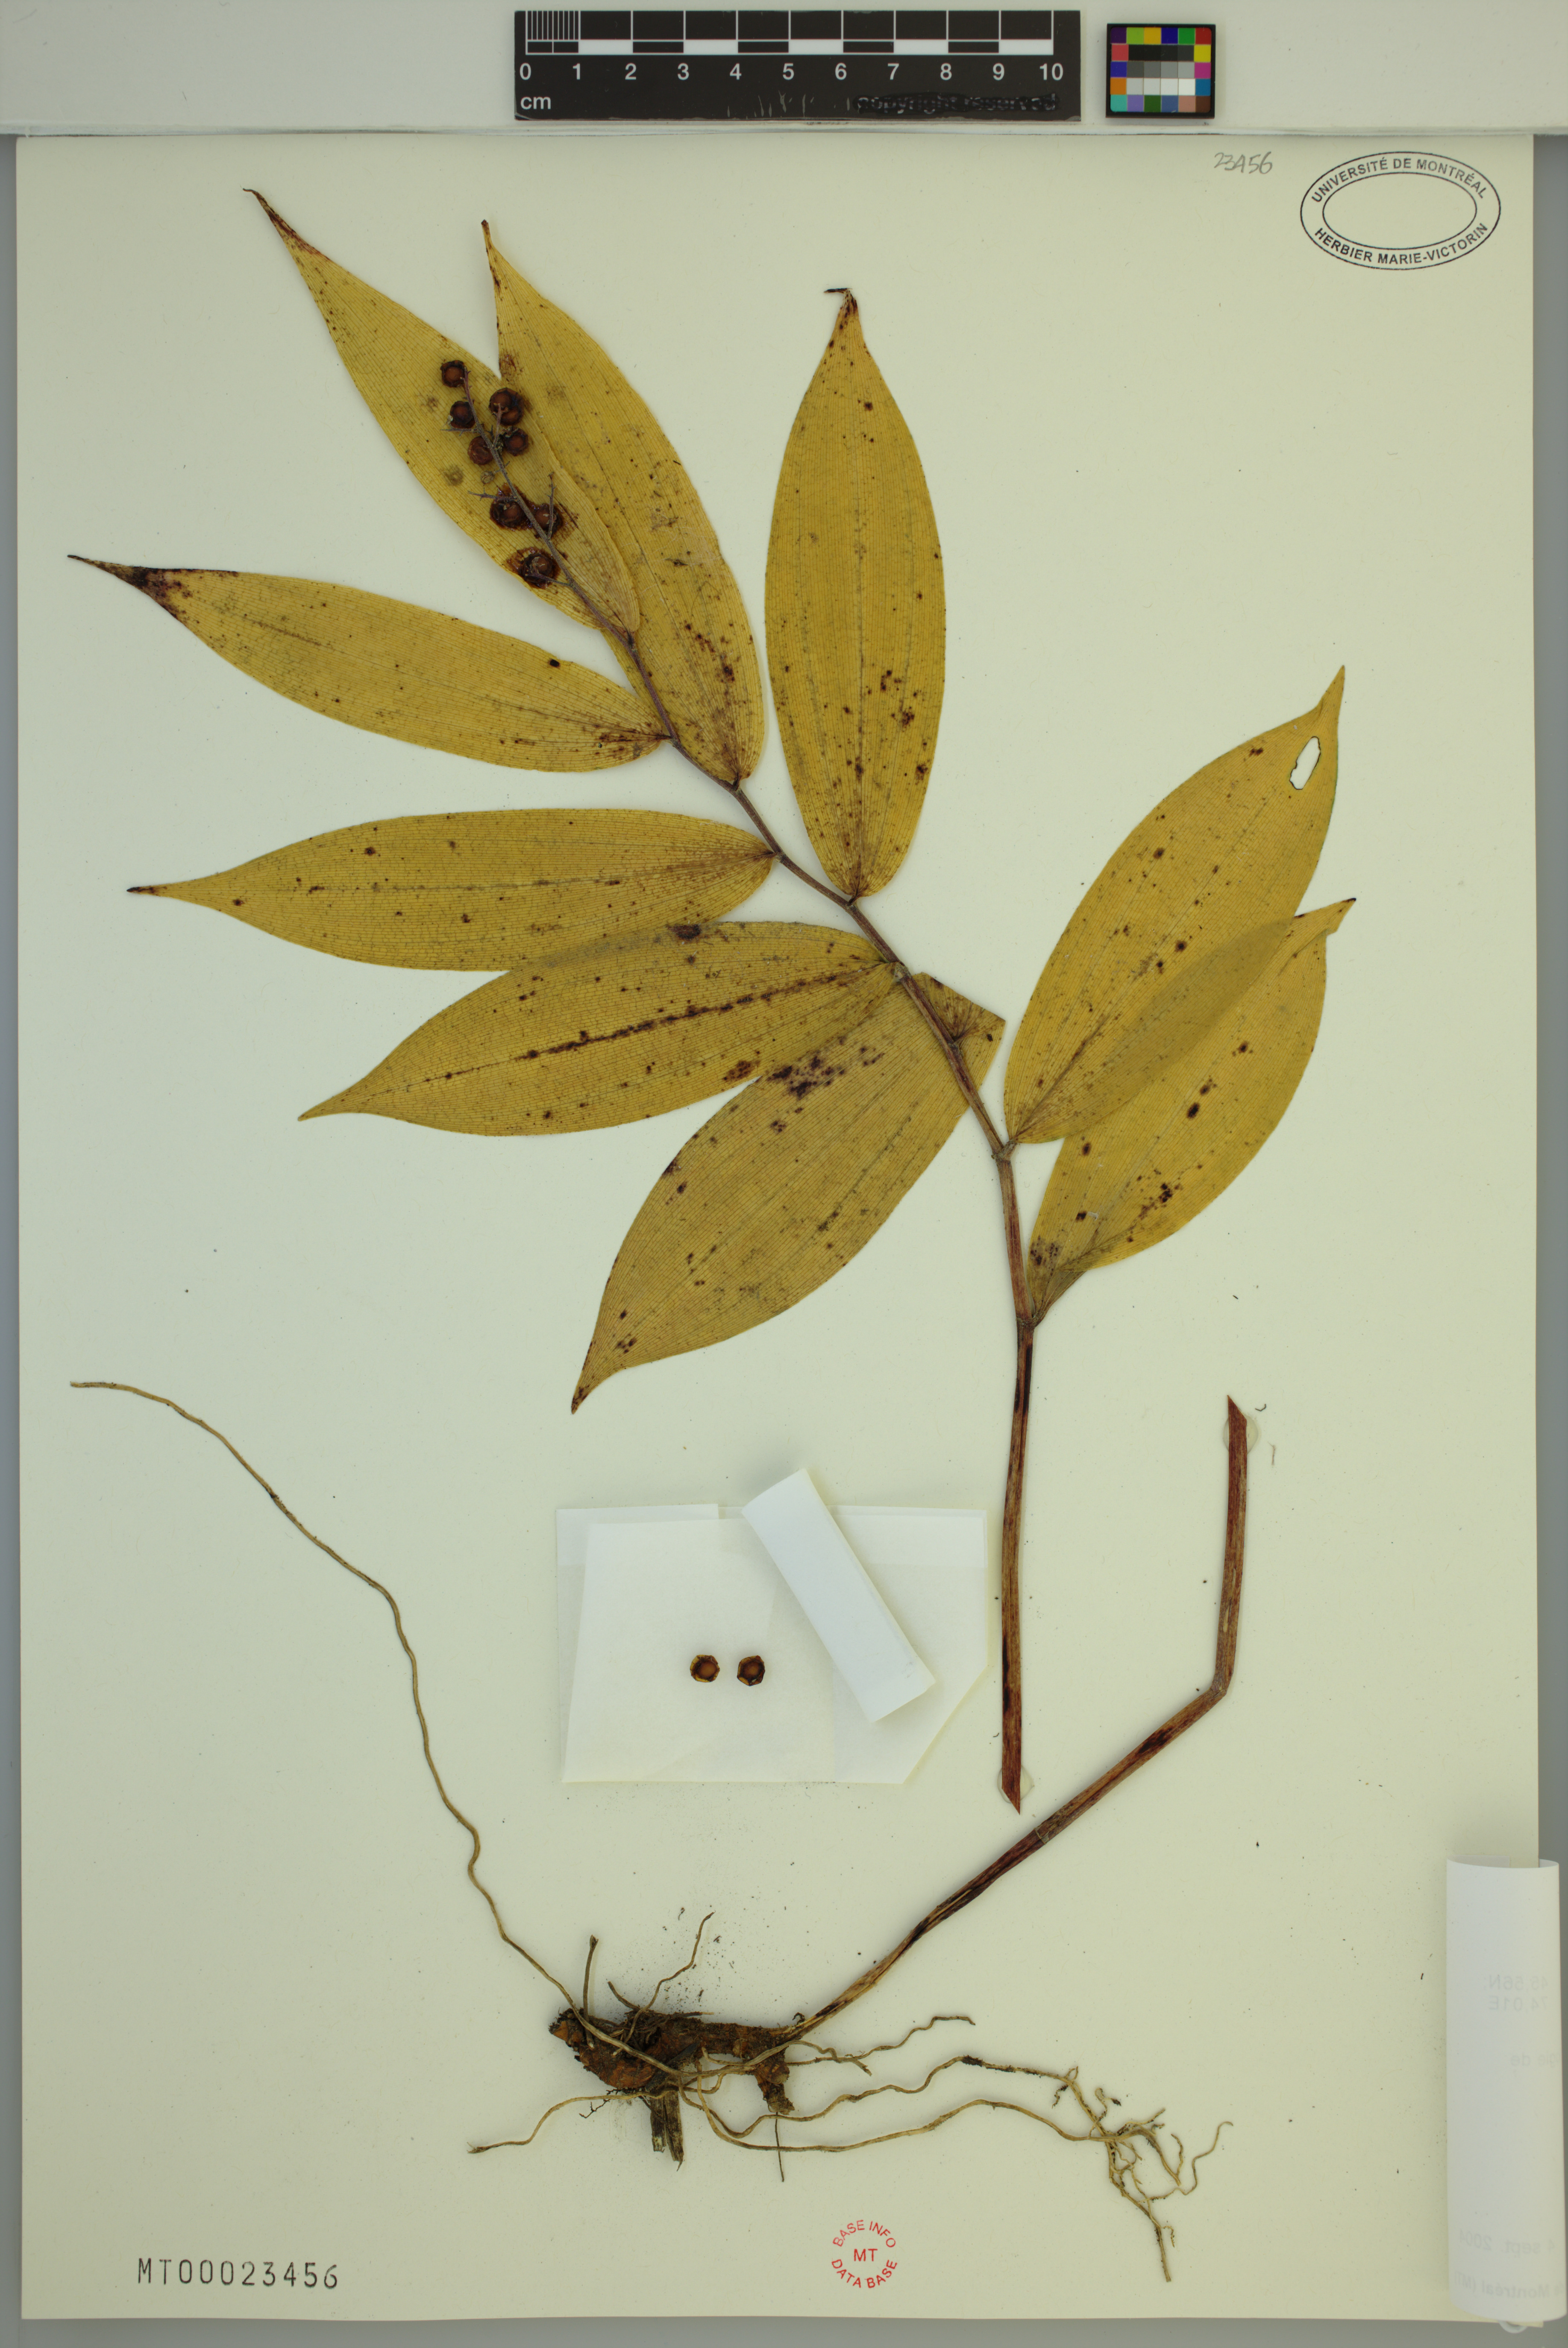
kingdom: Plantae
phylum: Tracheophyta
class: Liliopsida
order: Asparagales
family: Asparagaceae
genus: Maianthemum
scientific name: Maianthemum racemosum
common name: False spikenard
